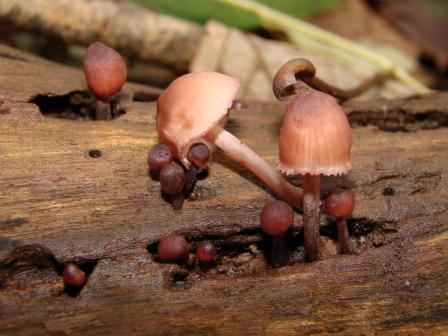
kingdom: Fungi
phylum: Basidiomycota
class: Agaricomycetes
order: Agaricales
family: Mycenaceae
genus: Mycena
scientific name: Mycena haematopus
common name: blødende huesvamp
